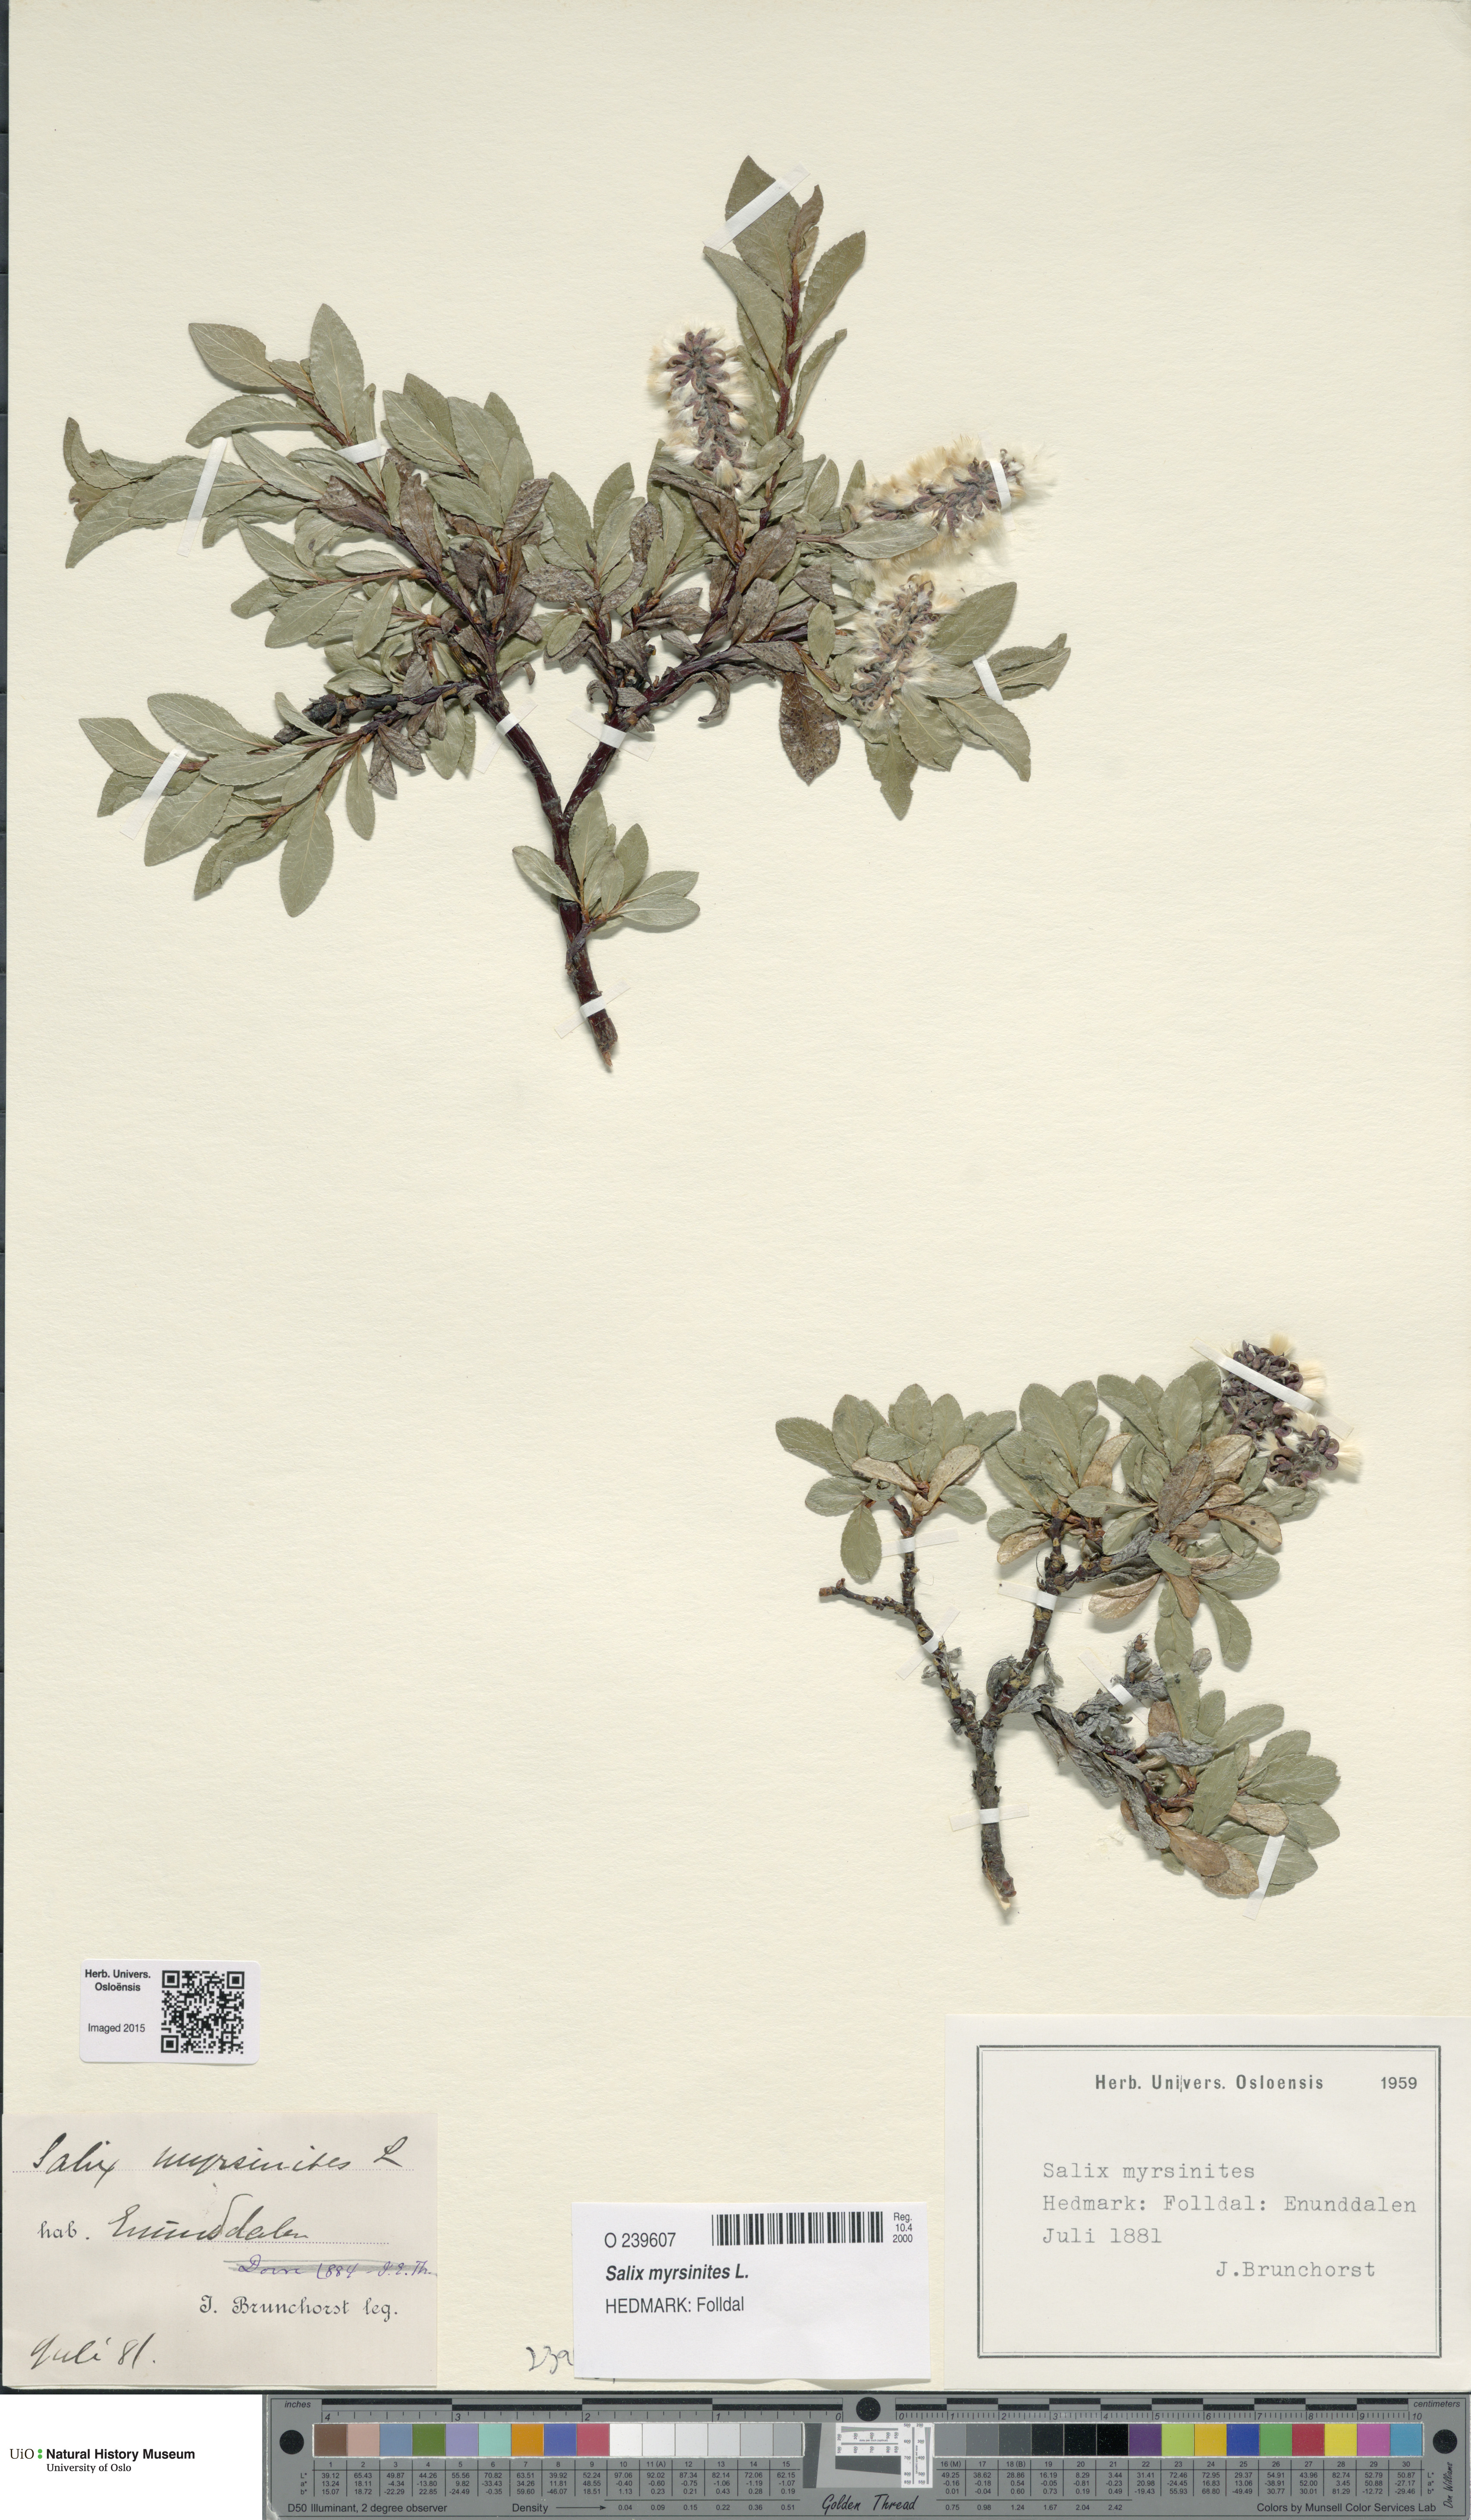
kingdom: Plantae
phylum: Tracheophyta
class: Magnoliopsida
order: Malpighiales
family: Salicaceae
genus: Salix
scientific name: Salix myrsinites
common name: Myrtle willow
